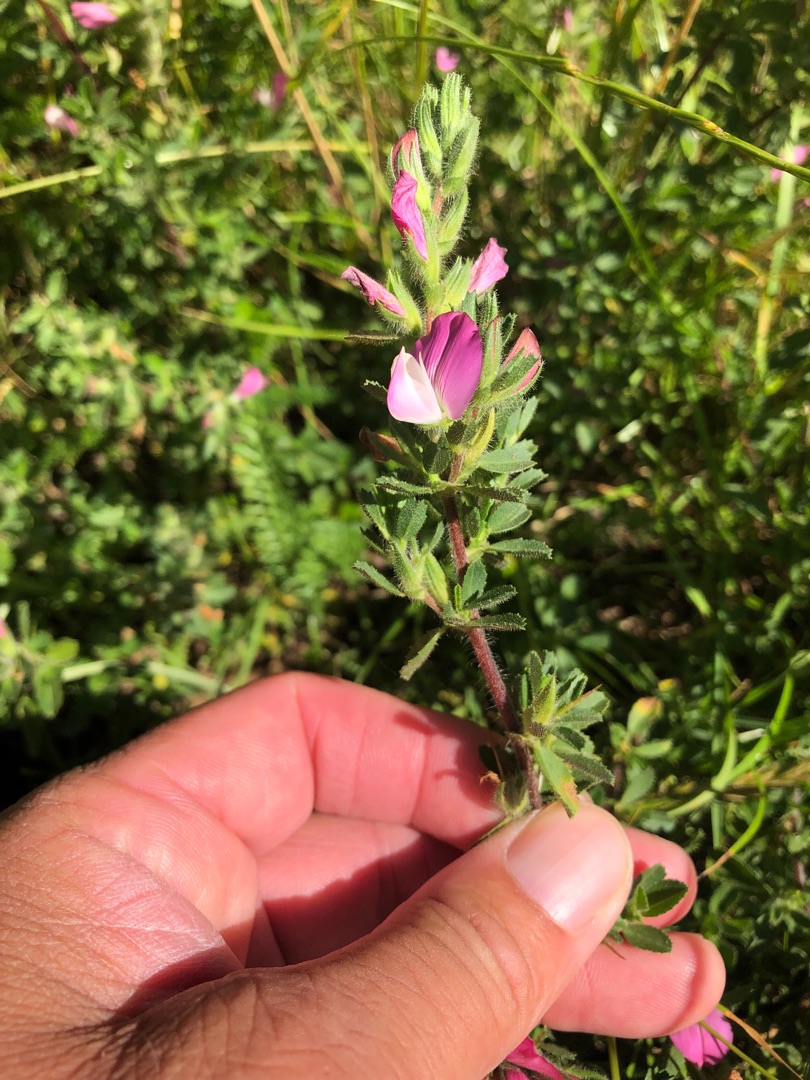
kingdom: Plantae
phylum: Tracheophyta
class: Magnoliopsida
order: Fabales
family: Fabaceae
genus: Ononis
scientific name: Ononis spinosa
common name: Mark-krageklo
